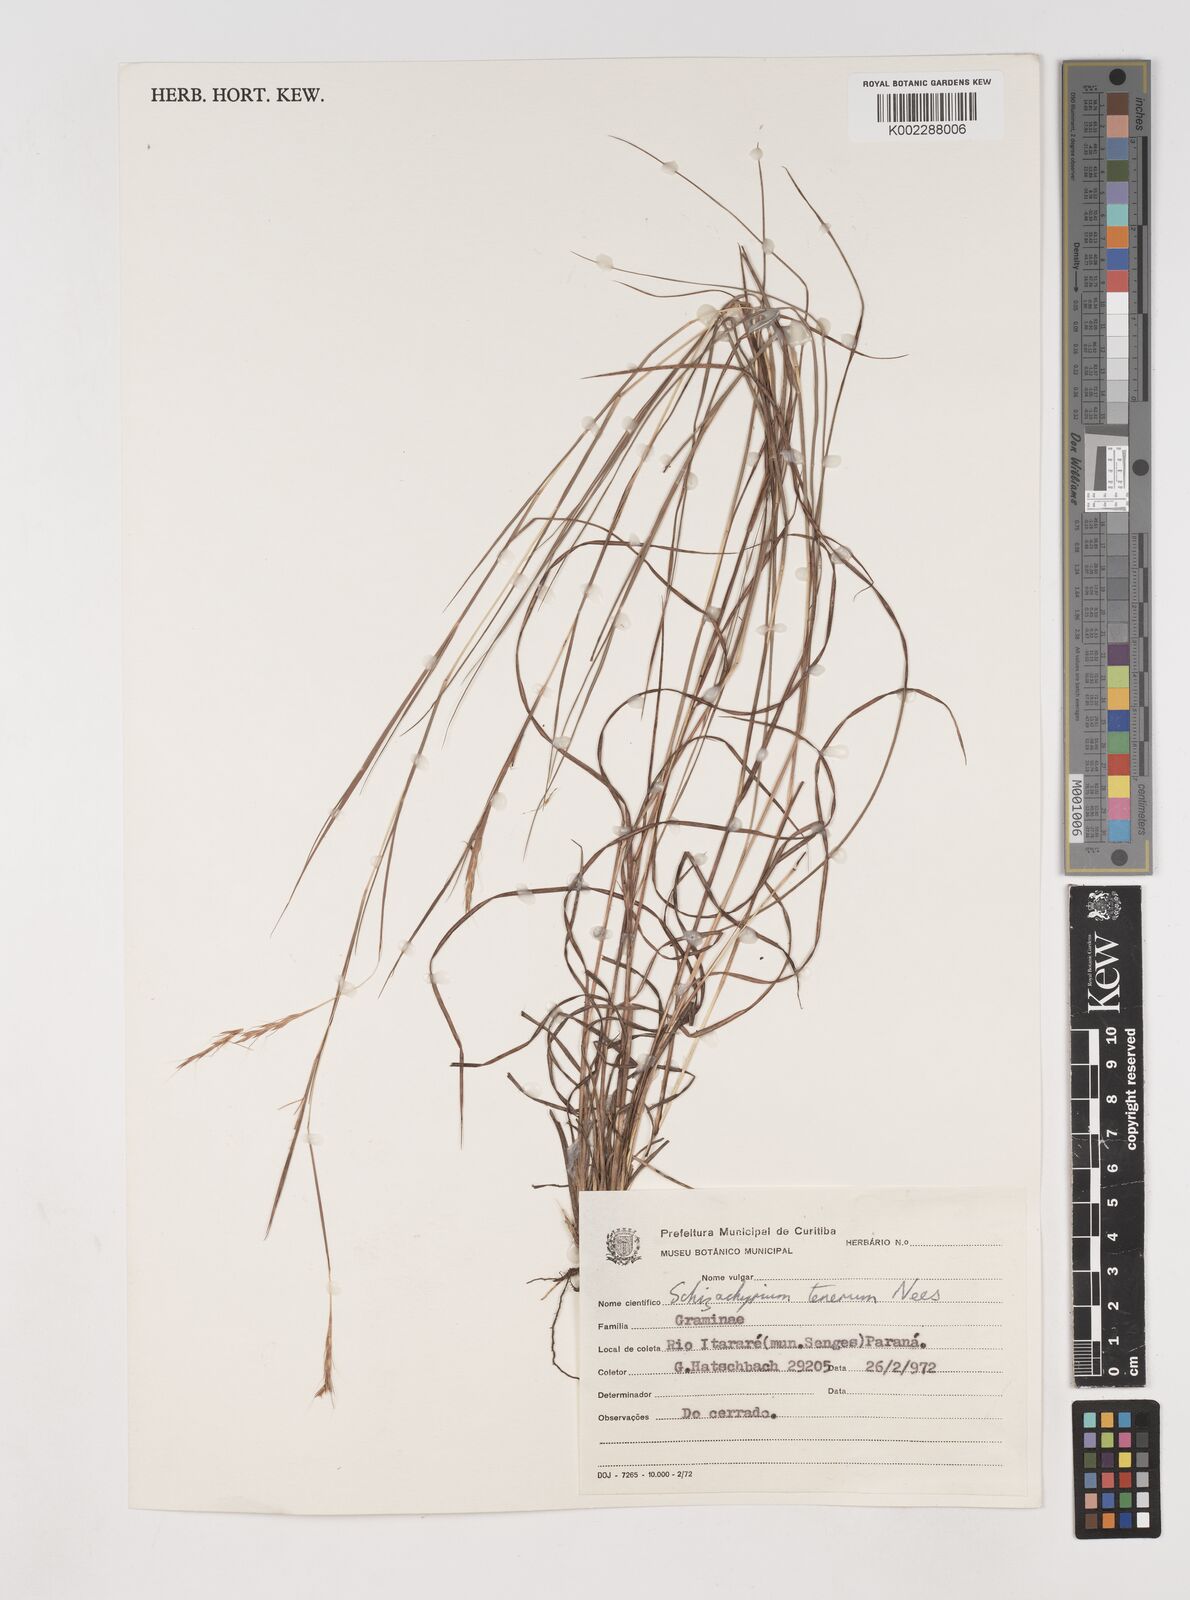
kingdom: Plantae
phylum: Tracheophyta
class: Liliopsida
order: Poales
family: Poaceae
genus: Andropogon
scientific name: Andropogon tener
